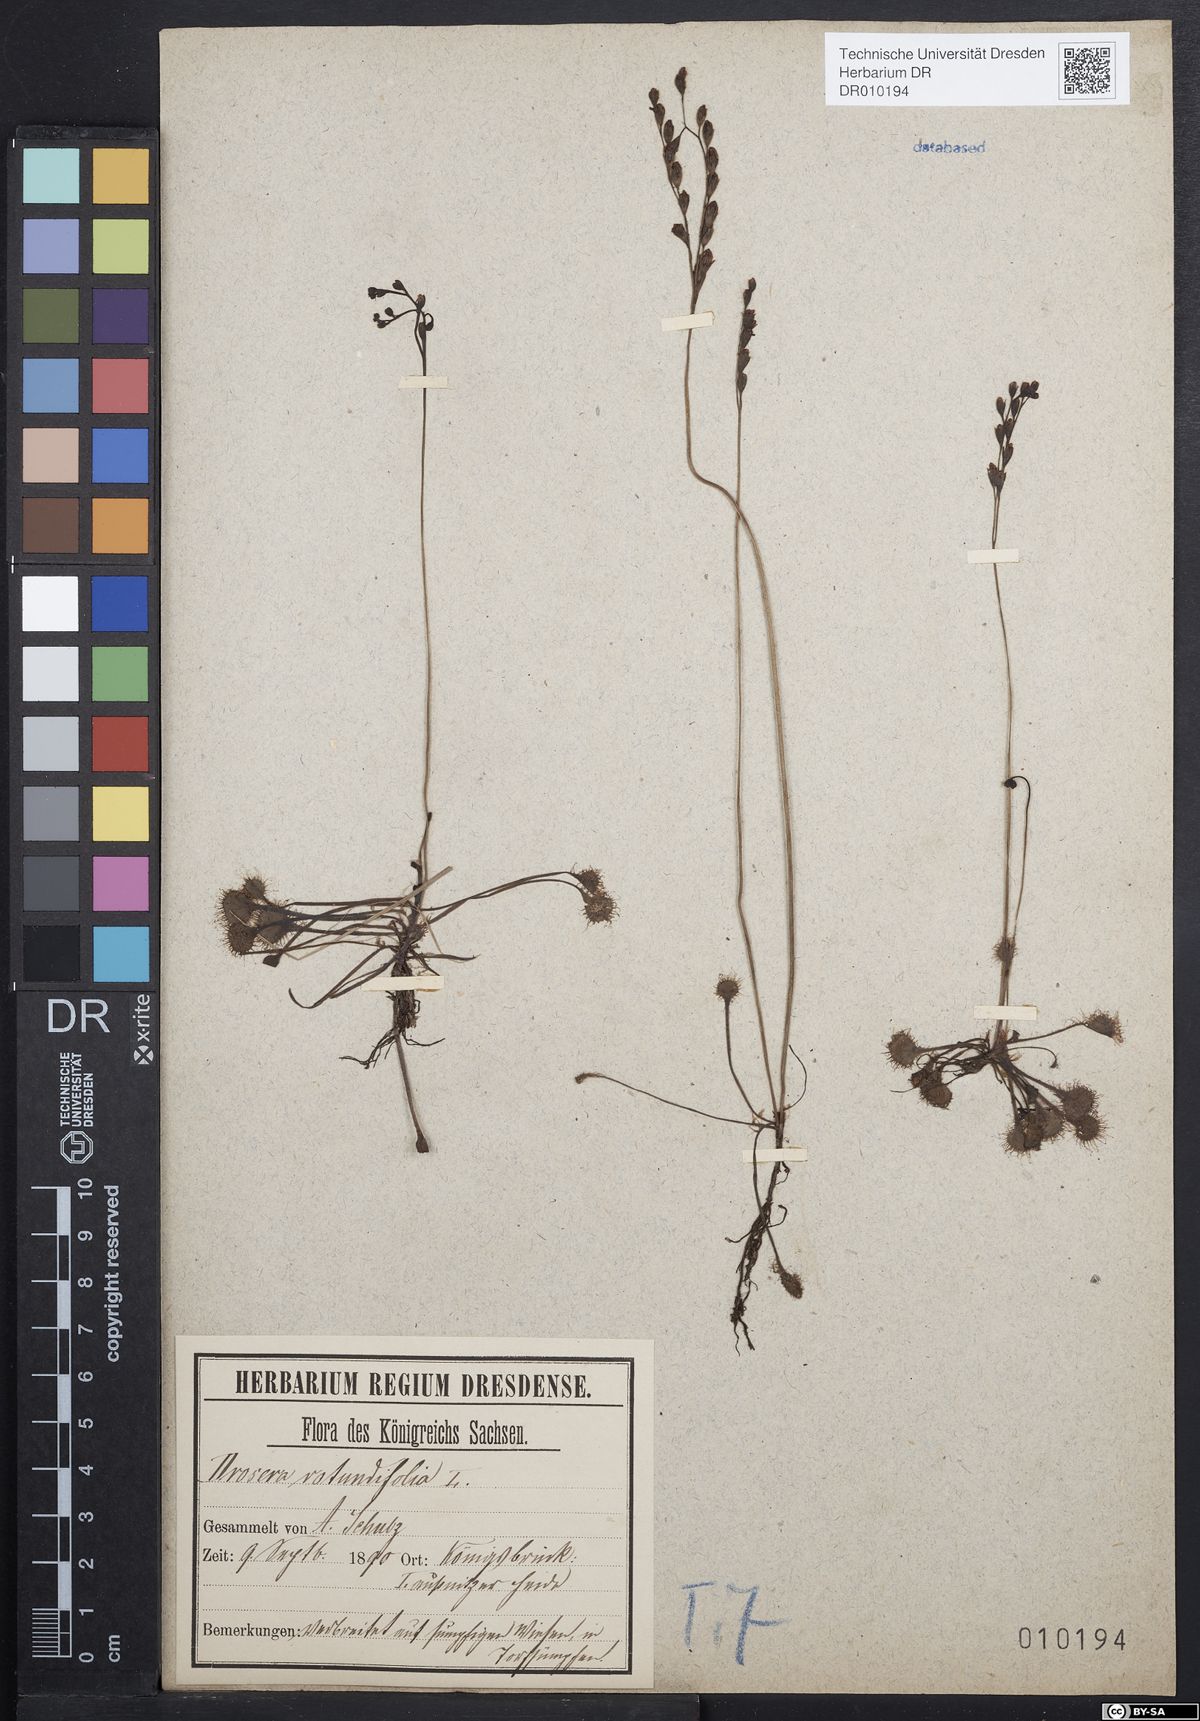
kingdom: Plantae
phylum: Tracheophyta
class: Magnoliopsida
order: Caryophyllales
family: Droseraceae
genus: Drosera
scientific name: Drosera rotundifolia
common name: Round-leaved sundew
